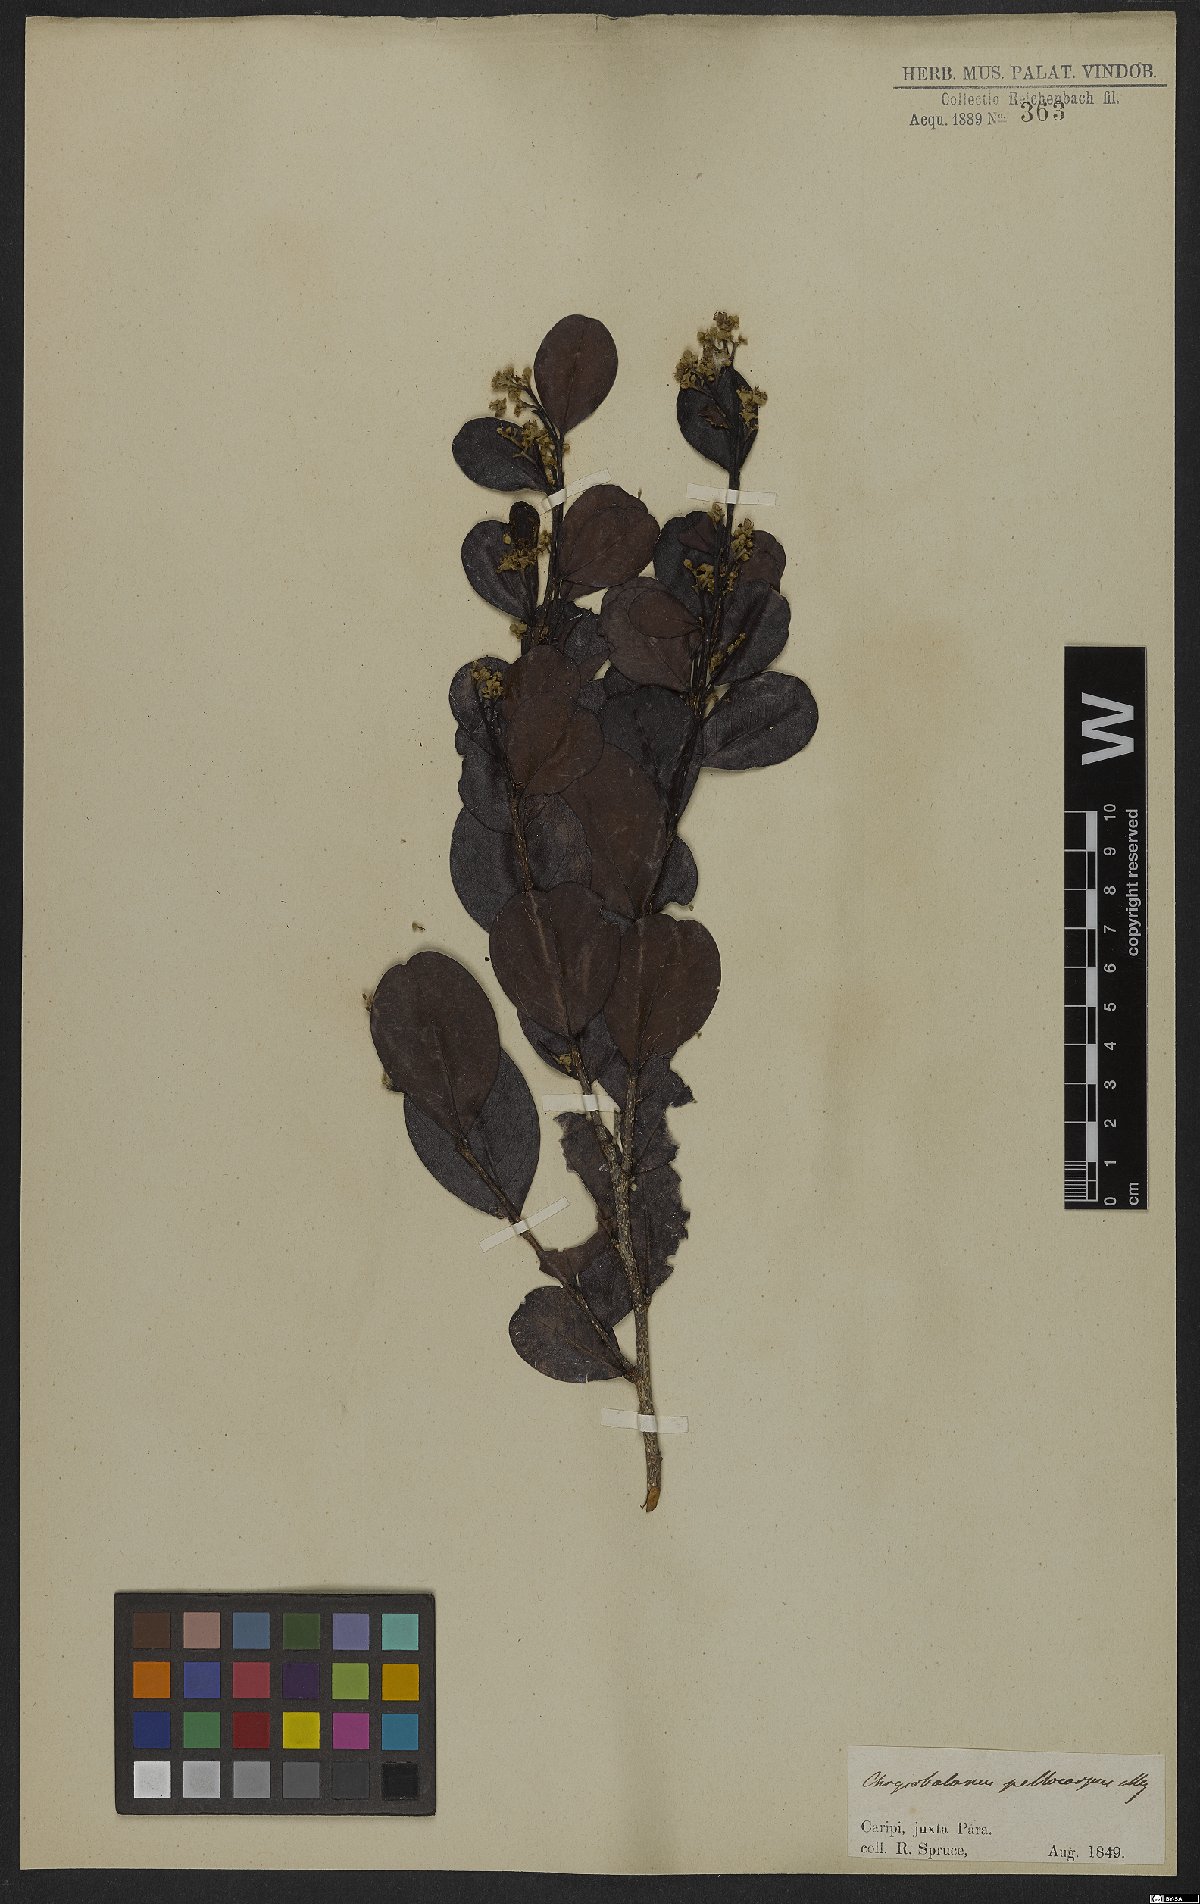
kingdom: Plantae
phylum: Tracheophyta
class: Magnoliopsida
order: Malpighiales
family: Chrysobalanaceae
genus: Chrysobalanus
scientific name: Chrysobalanus icaco
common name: Coco plum
